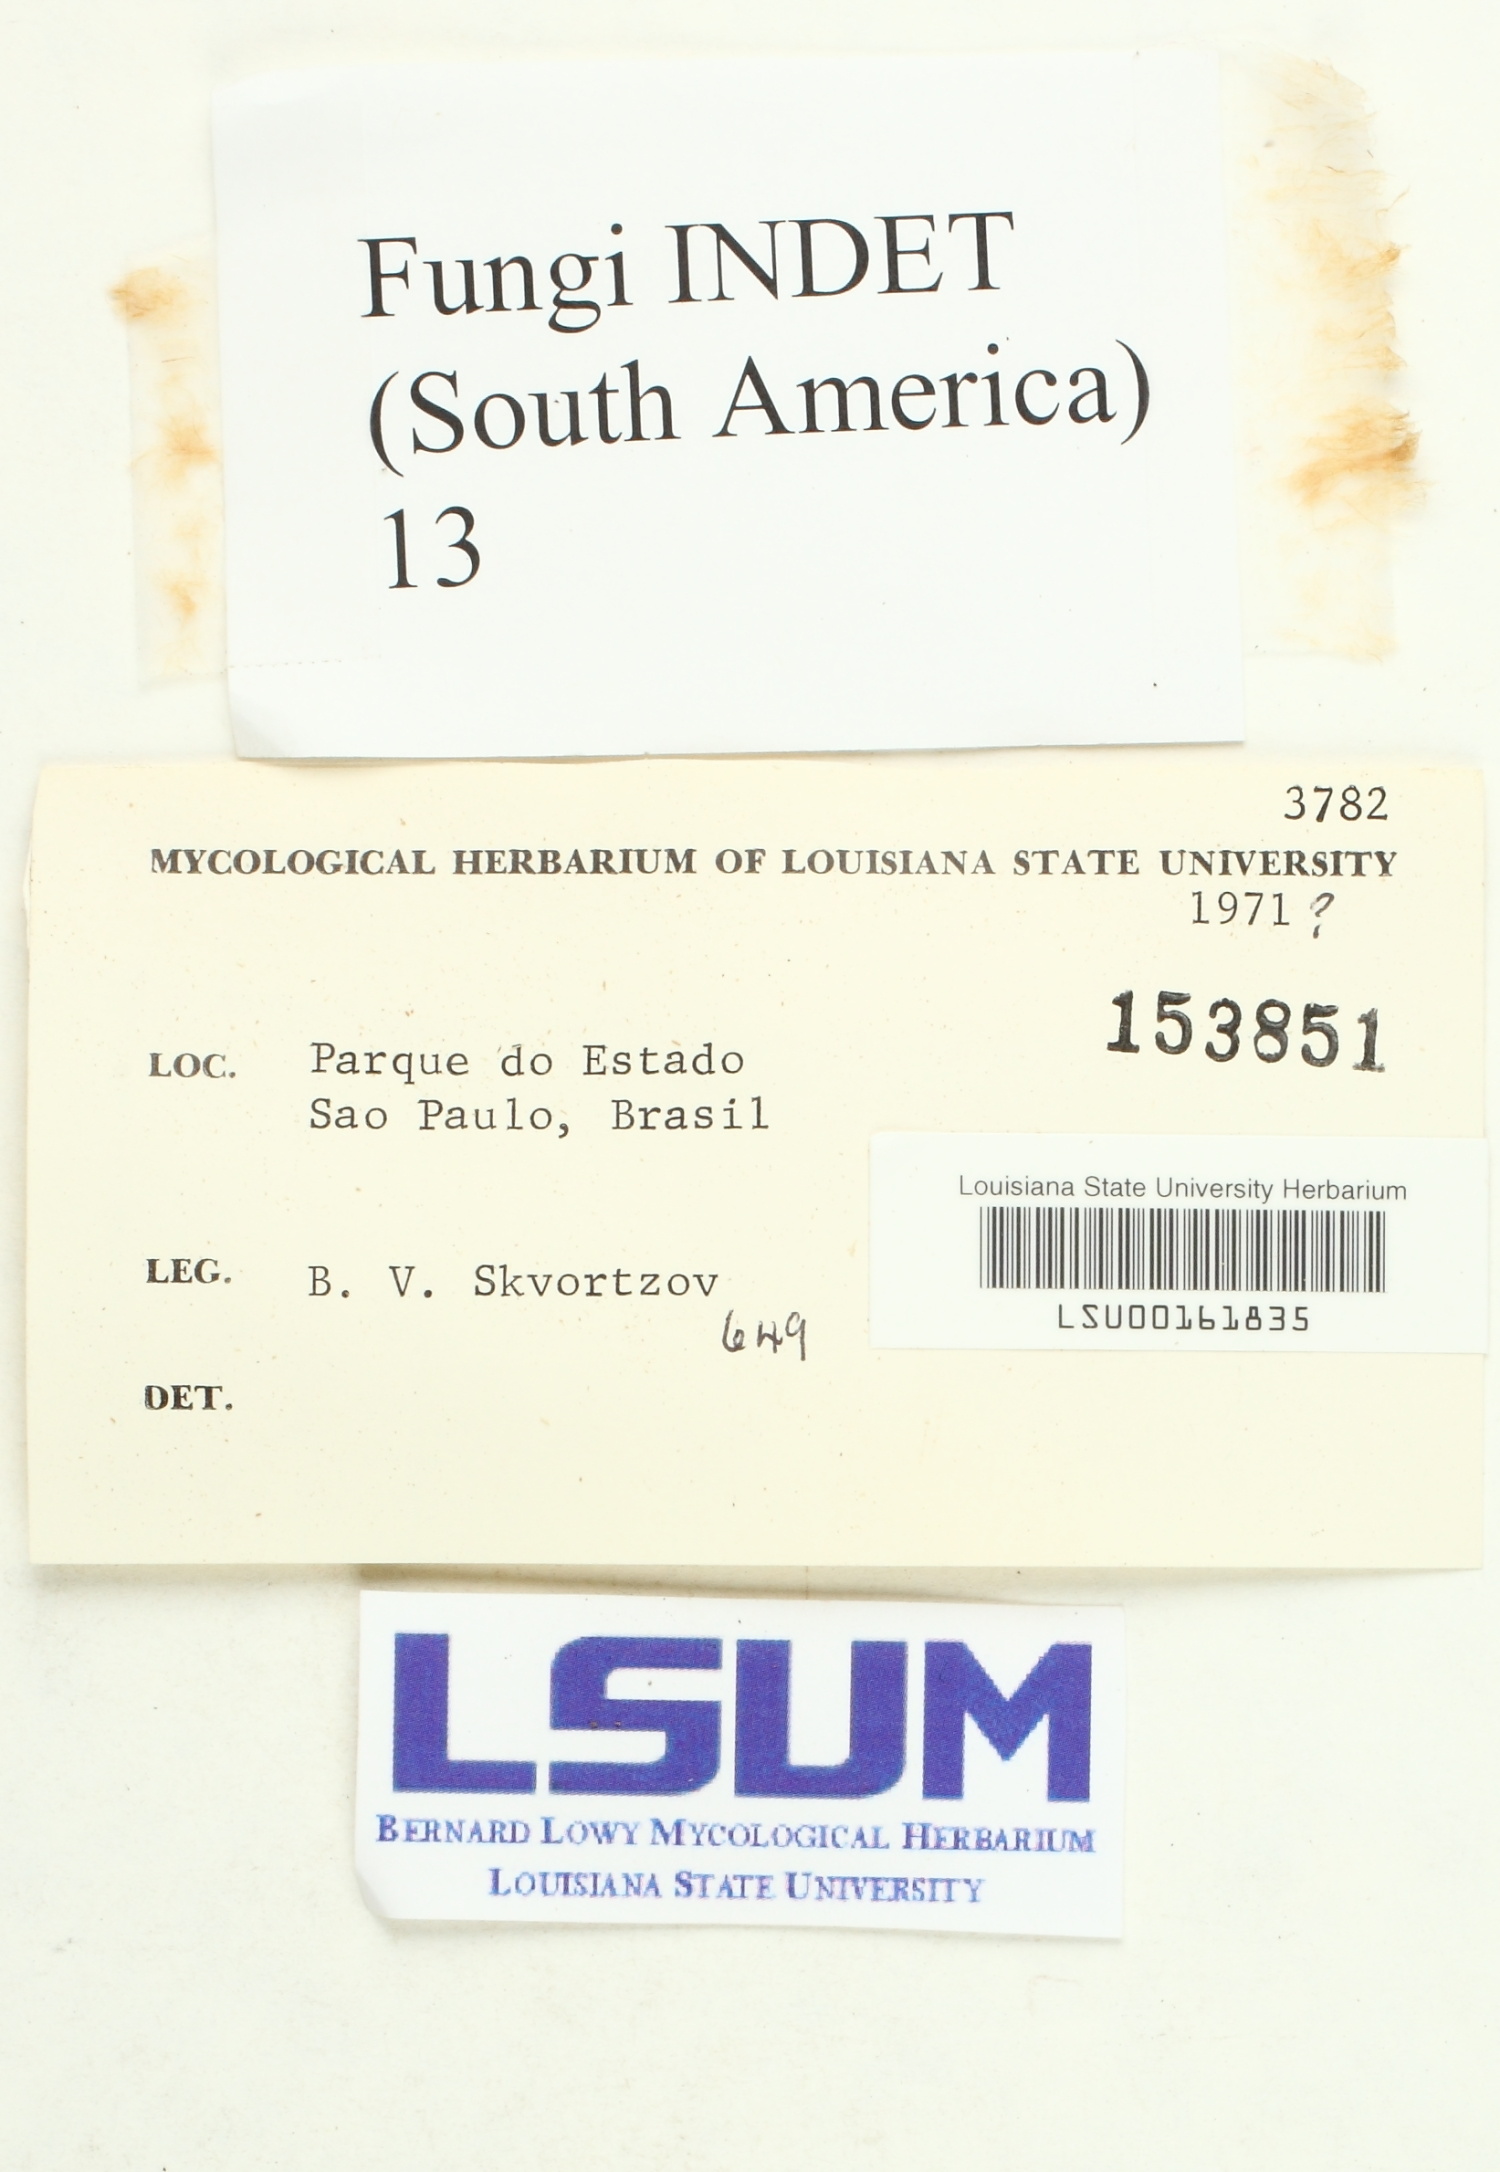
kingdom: Fungi
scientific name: Fungi
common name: Fungi
